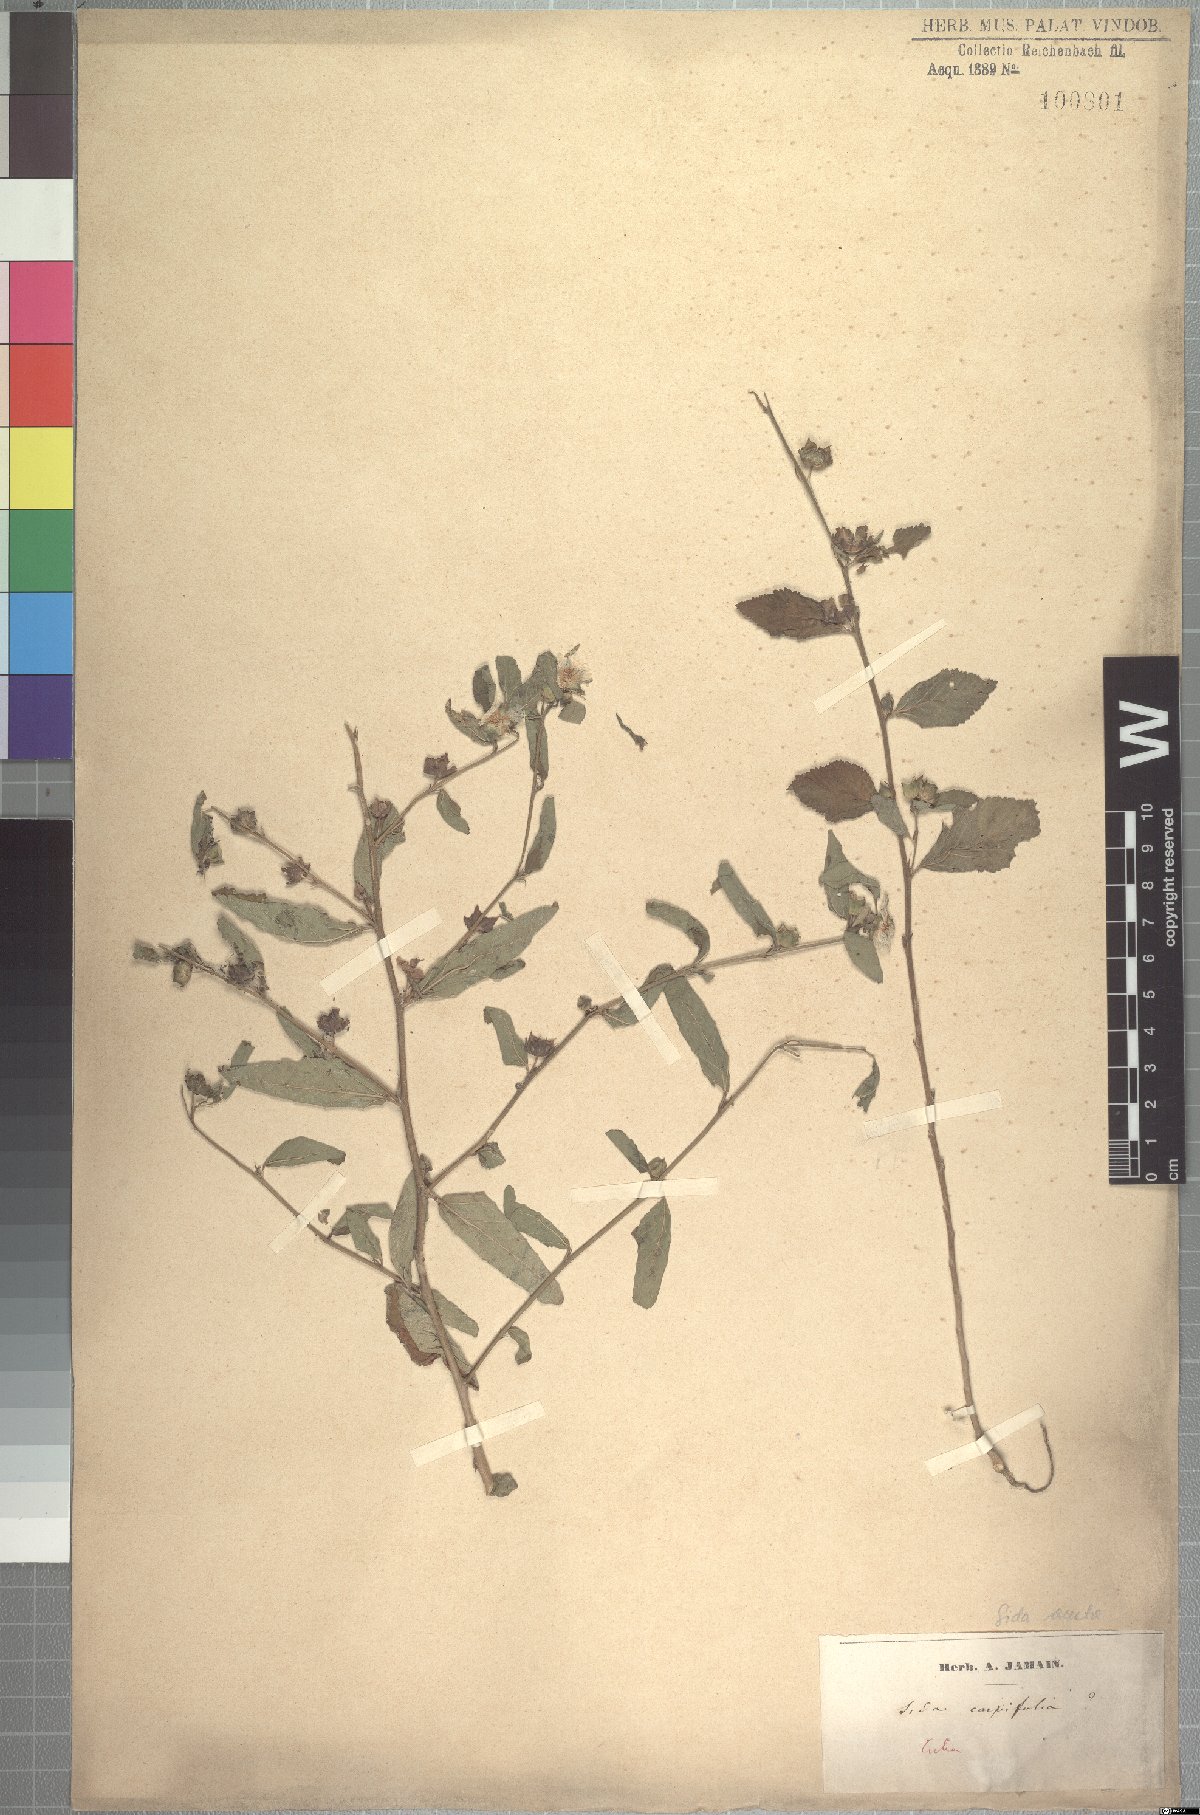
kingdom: Plantae
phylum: Tracheophyta
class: Magnoliopsida
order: Malvales
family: Malvaceae
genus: Sida
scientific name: Sida acuta
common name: Common wireweed
